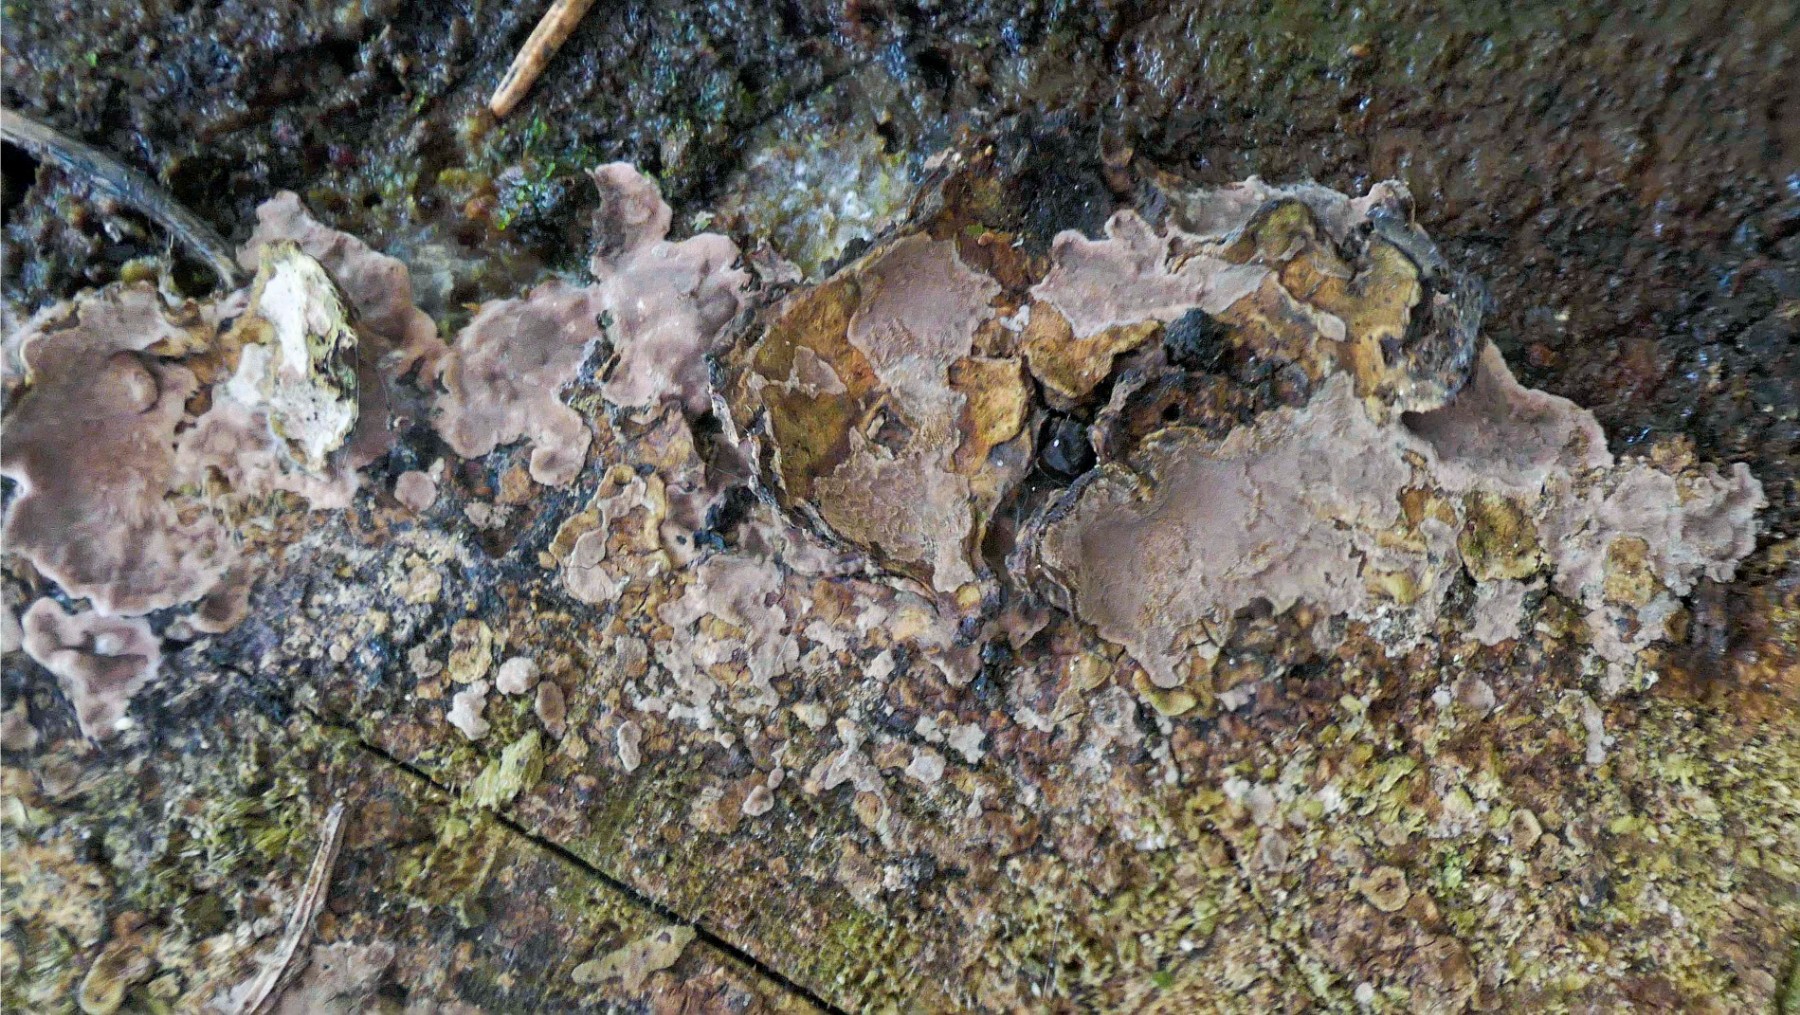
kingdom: Fungi
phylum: Basidiomycota
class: Agaricomycetes
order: Russulales
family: Echinodontiaceae
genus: Amylostereum
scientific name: Amylostereum chailletii
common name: gran-lædersvamp
